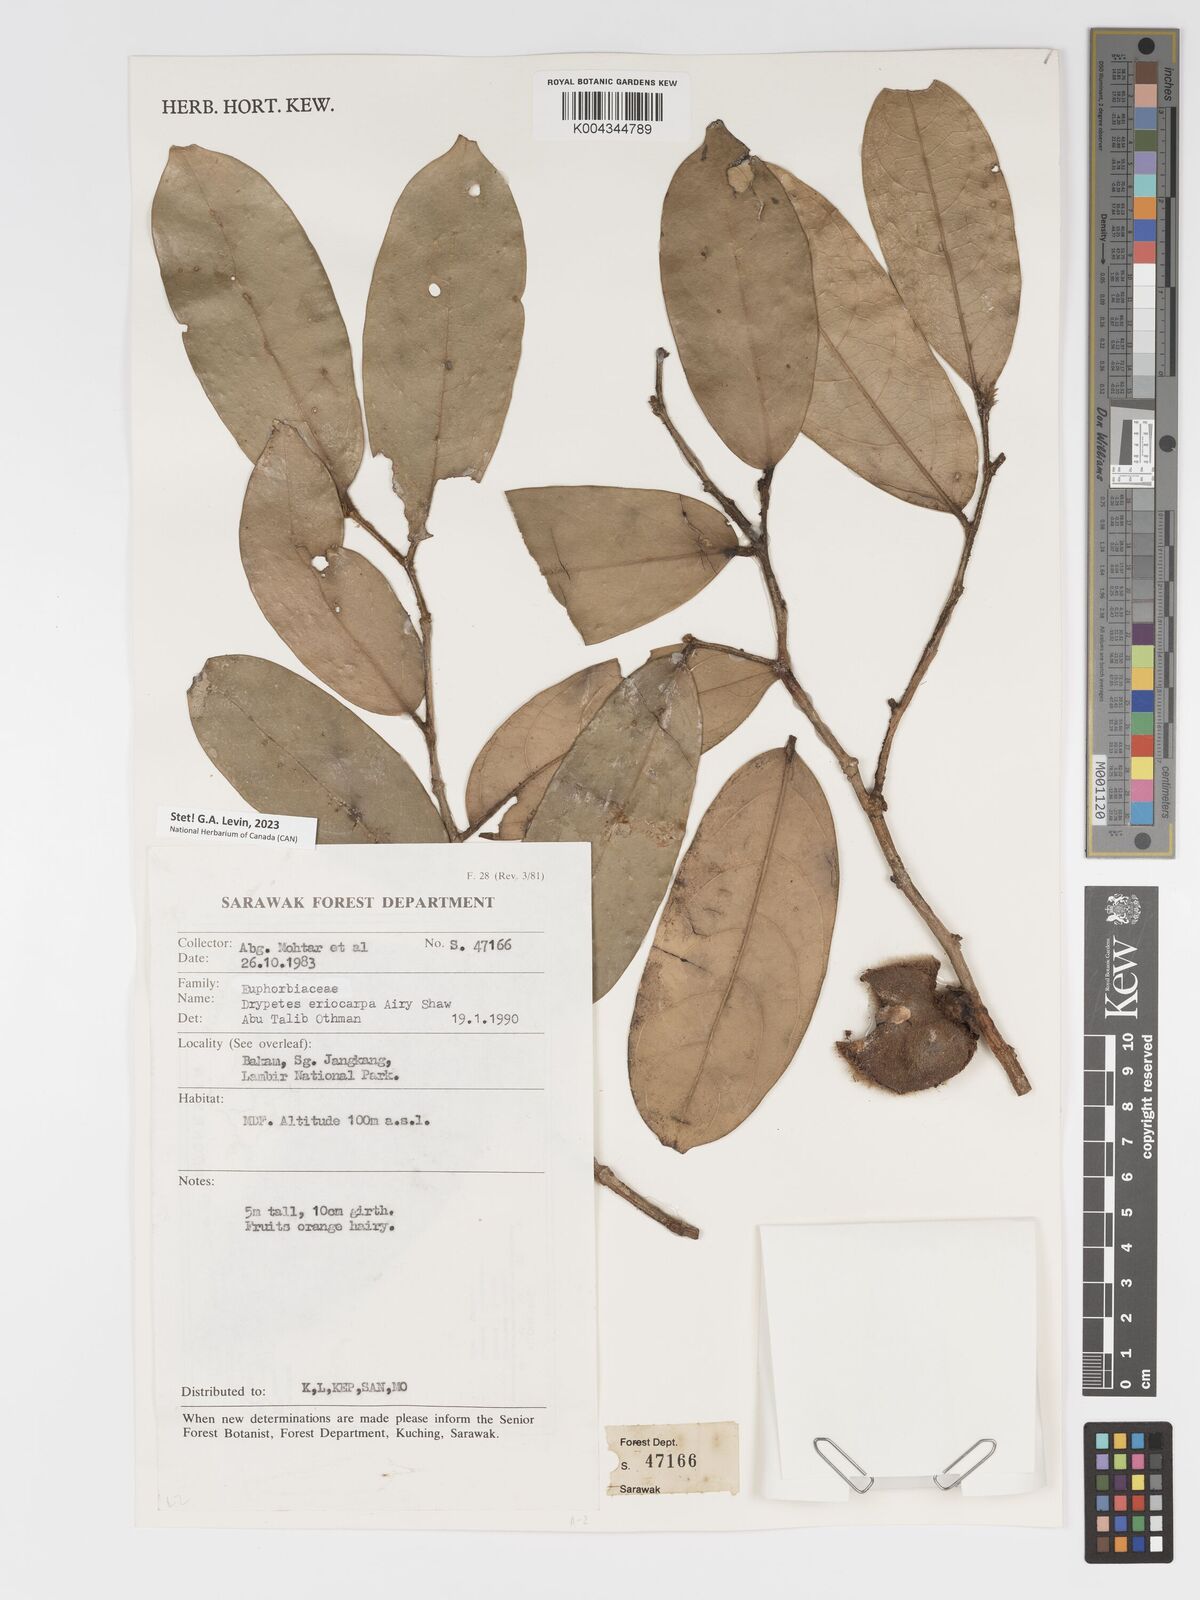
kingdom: Plantae
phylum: Tracheophyta
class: Magnoliopsida
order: Malpighiales
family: Putranjivaceae
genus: Drypetes
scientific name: Drypetes eriocarpa
